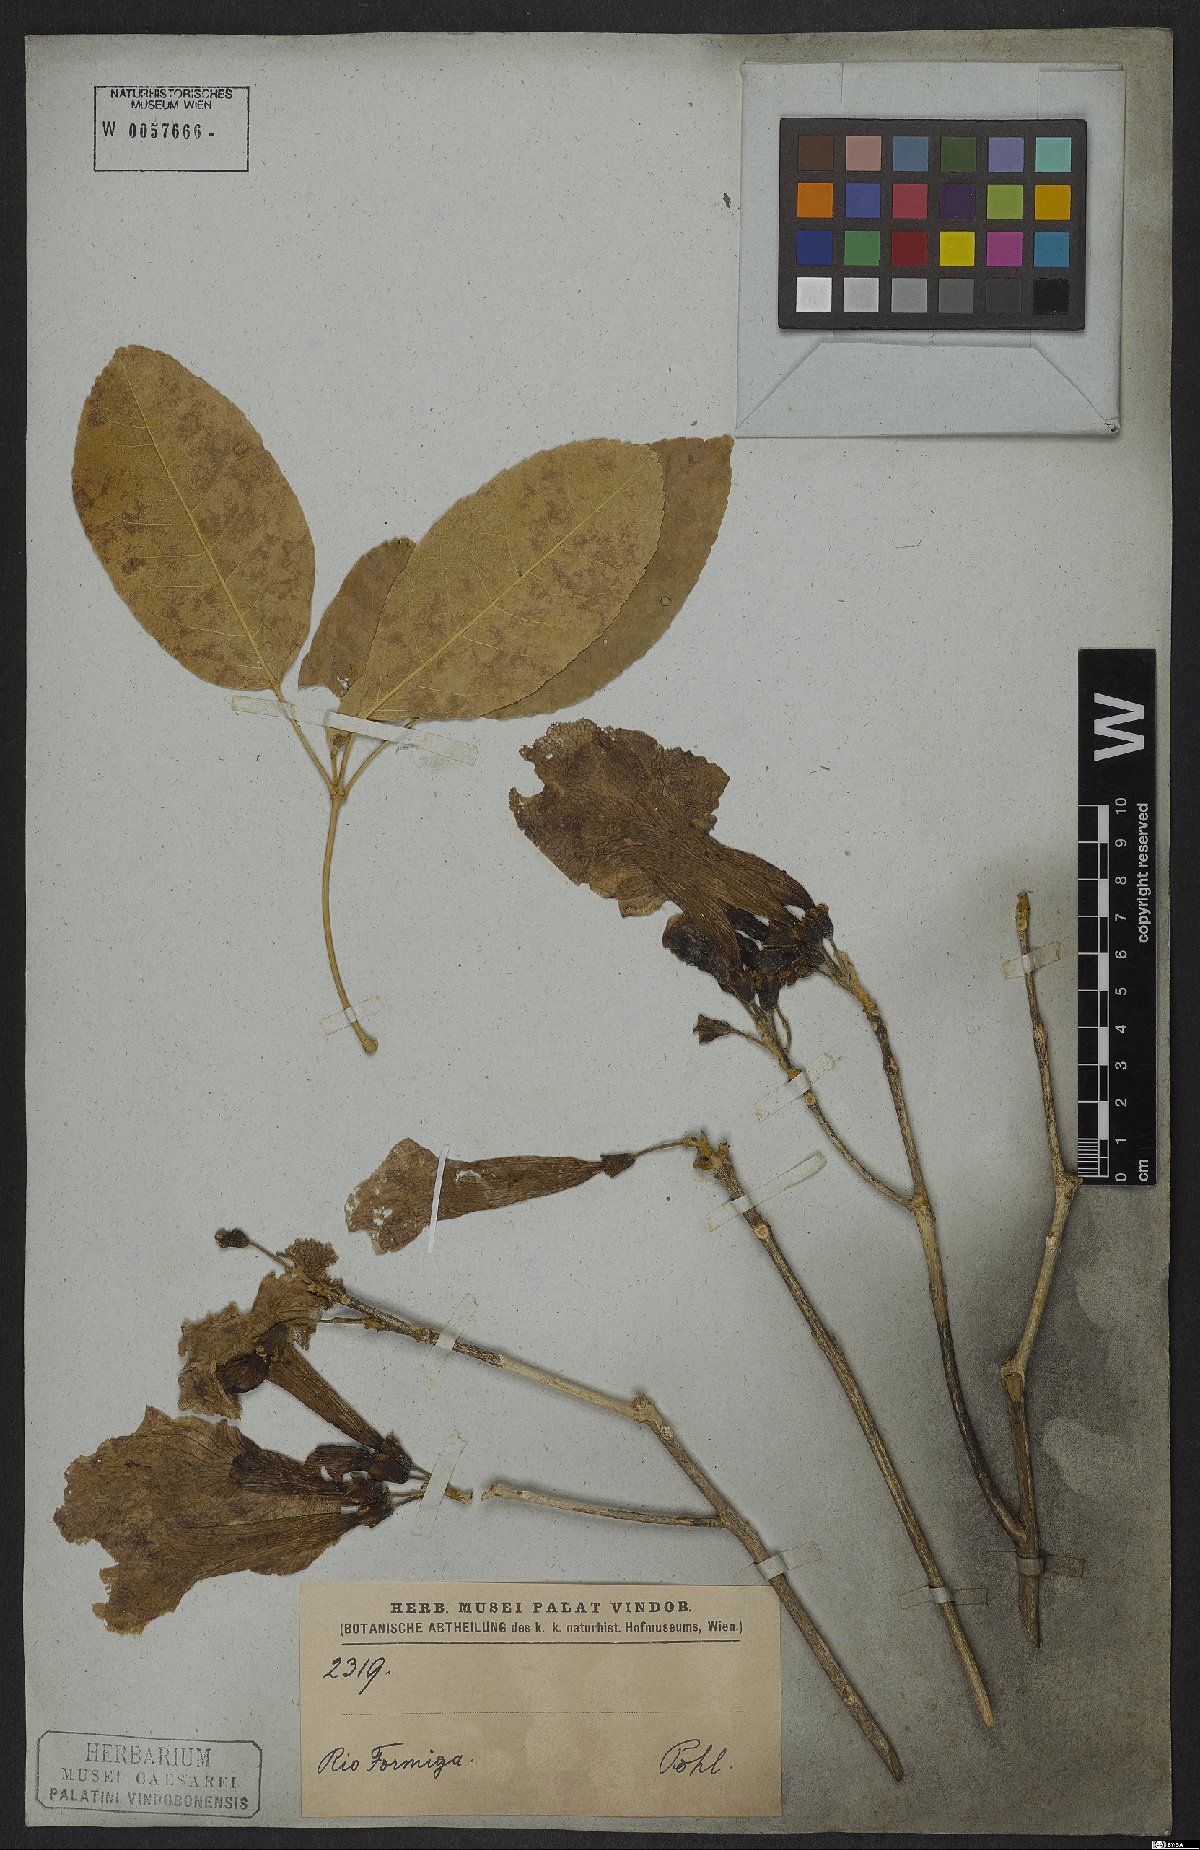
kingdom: Plantae
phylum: Tracheophyta
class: Magnoliopsida
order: Lamiales
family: Bignoniaceae
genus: Handroanthus
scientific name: Handroanthus serratifolius
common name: Yellow ipe
